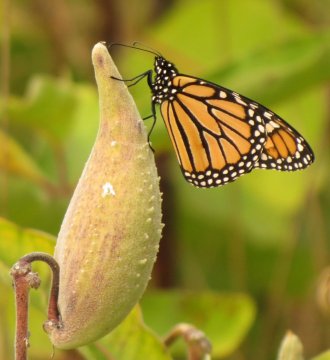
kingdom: Animalia
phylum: Arthropoda
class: Insecta
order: Lepidoptera
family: Nymphalidae
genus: Danaus
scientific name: Danaus plexippus
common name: Monarch
